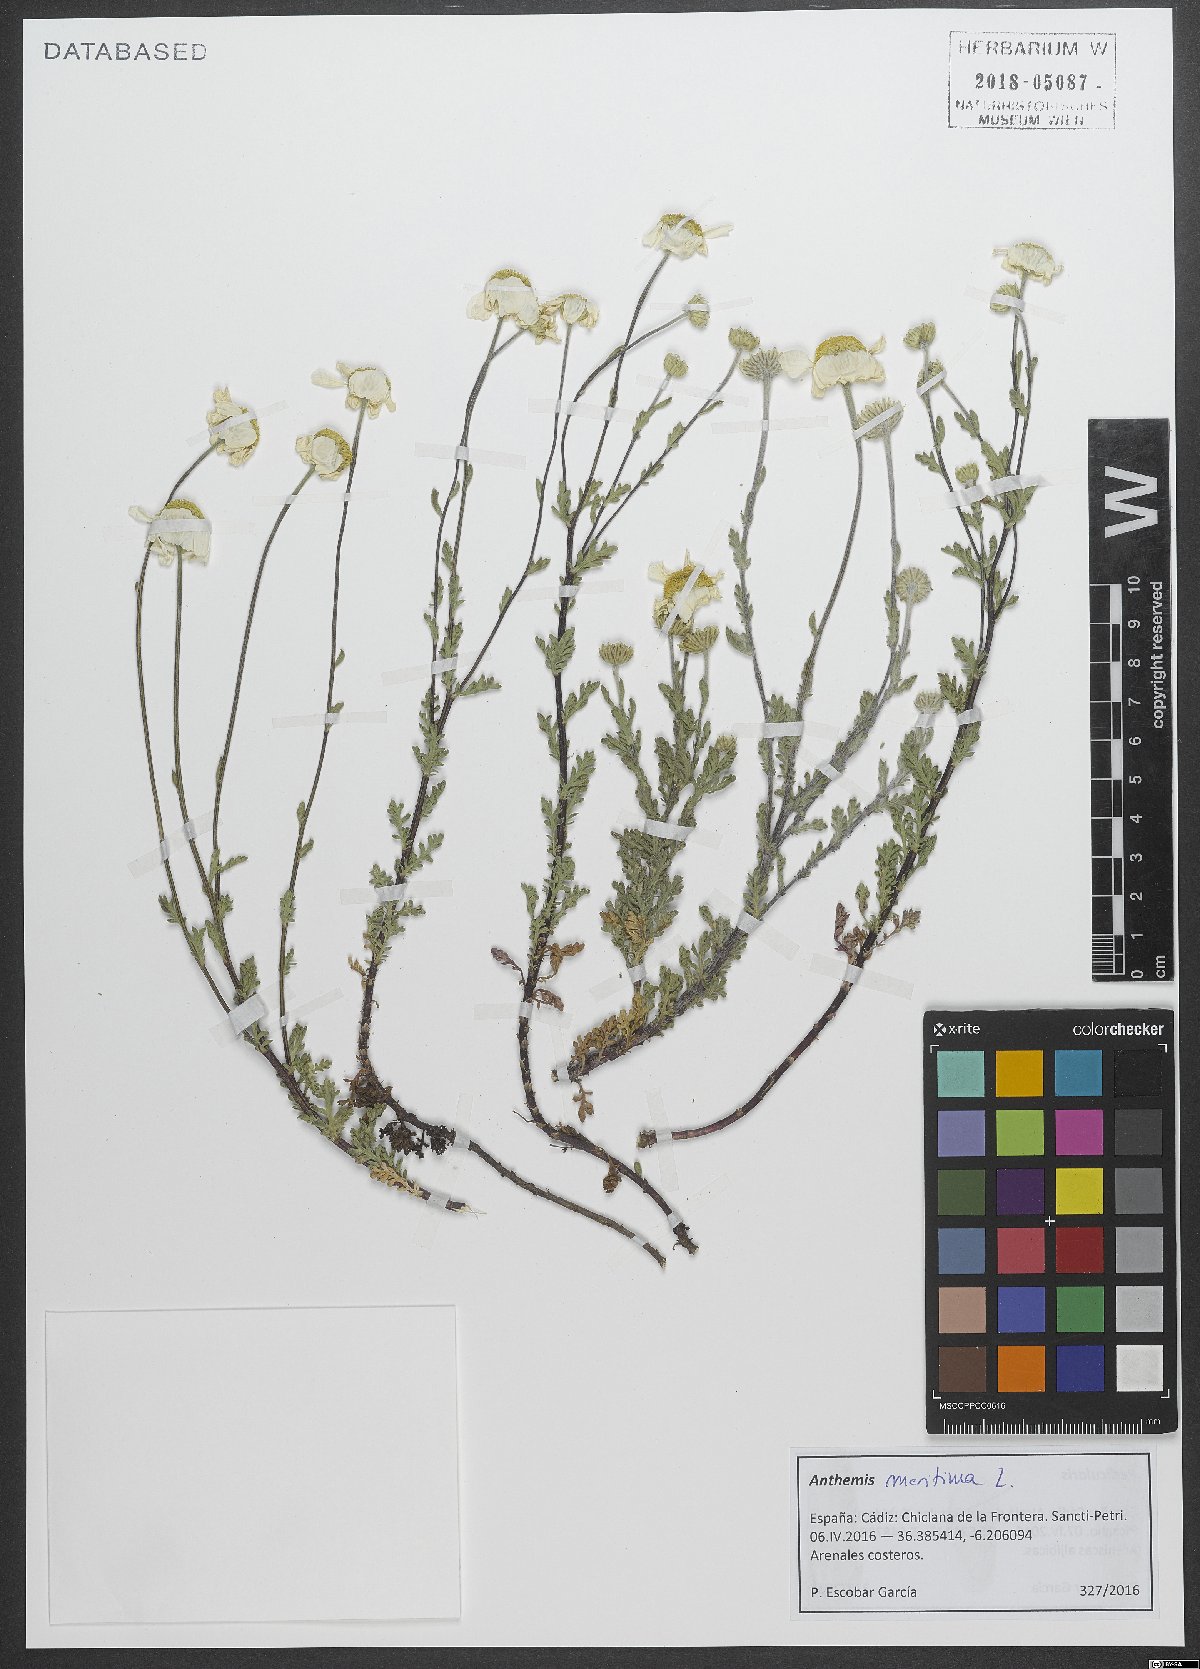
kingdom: Plantae
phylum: Tracheophyta
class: Magnoliopsida
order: Asterales
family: Asteraceae
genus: Anthemis
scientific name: Anthemis maritima
